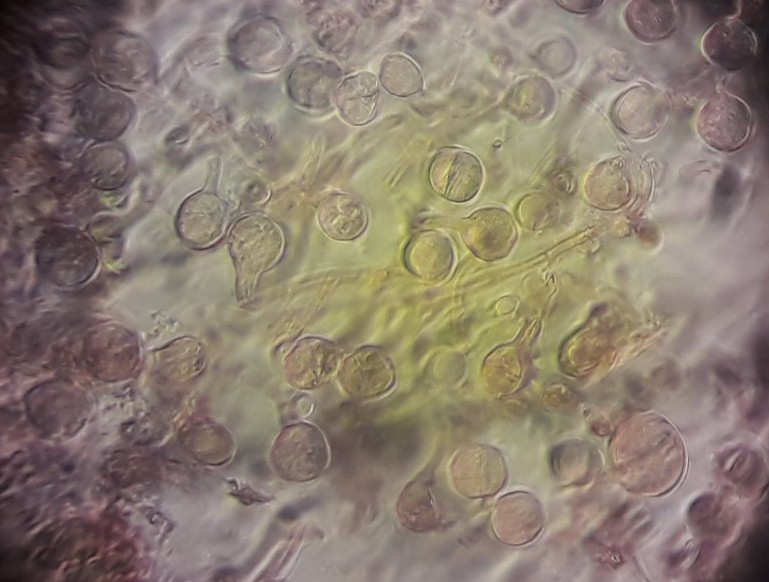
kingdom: Fungi
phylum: Basidiomycota
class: Tremellomycetes
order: Tremellales
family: Tremellaceae
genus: Tremella
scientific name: Tremella globispora
